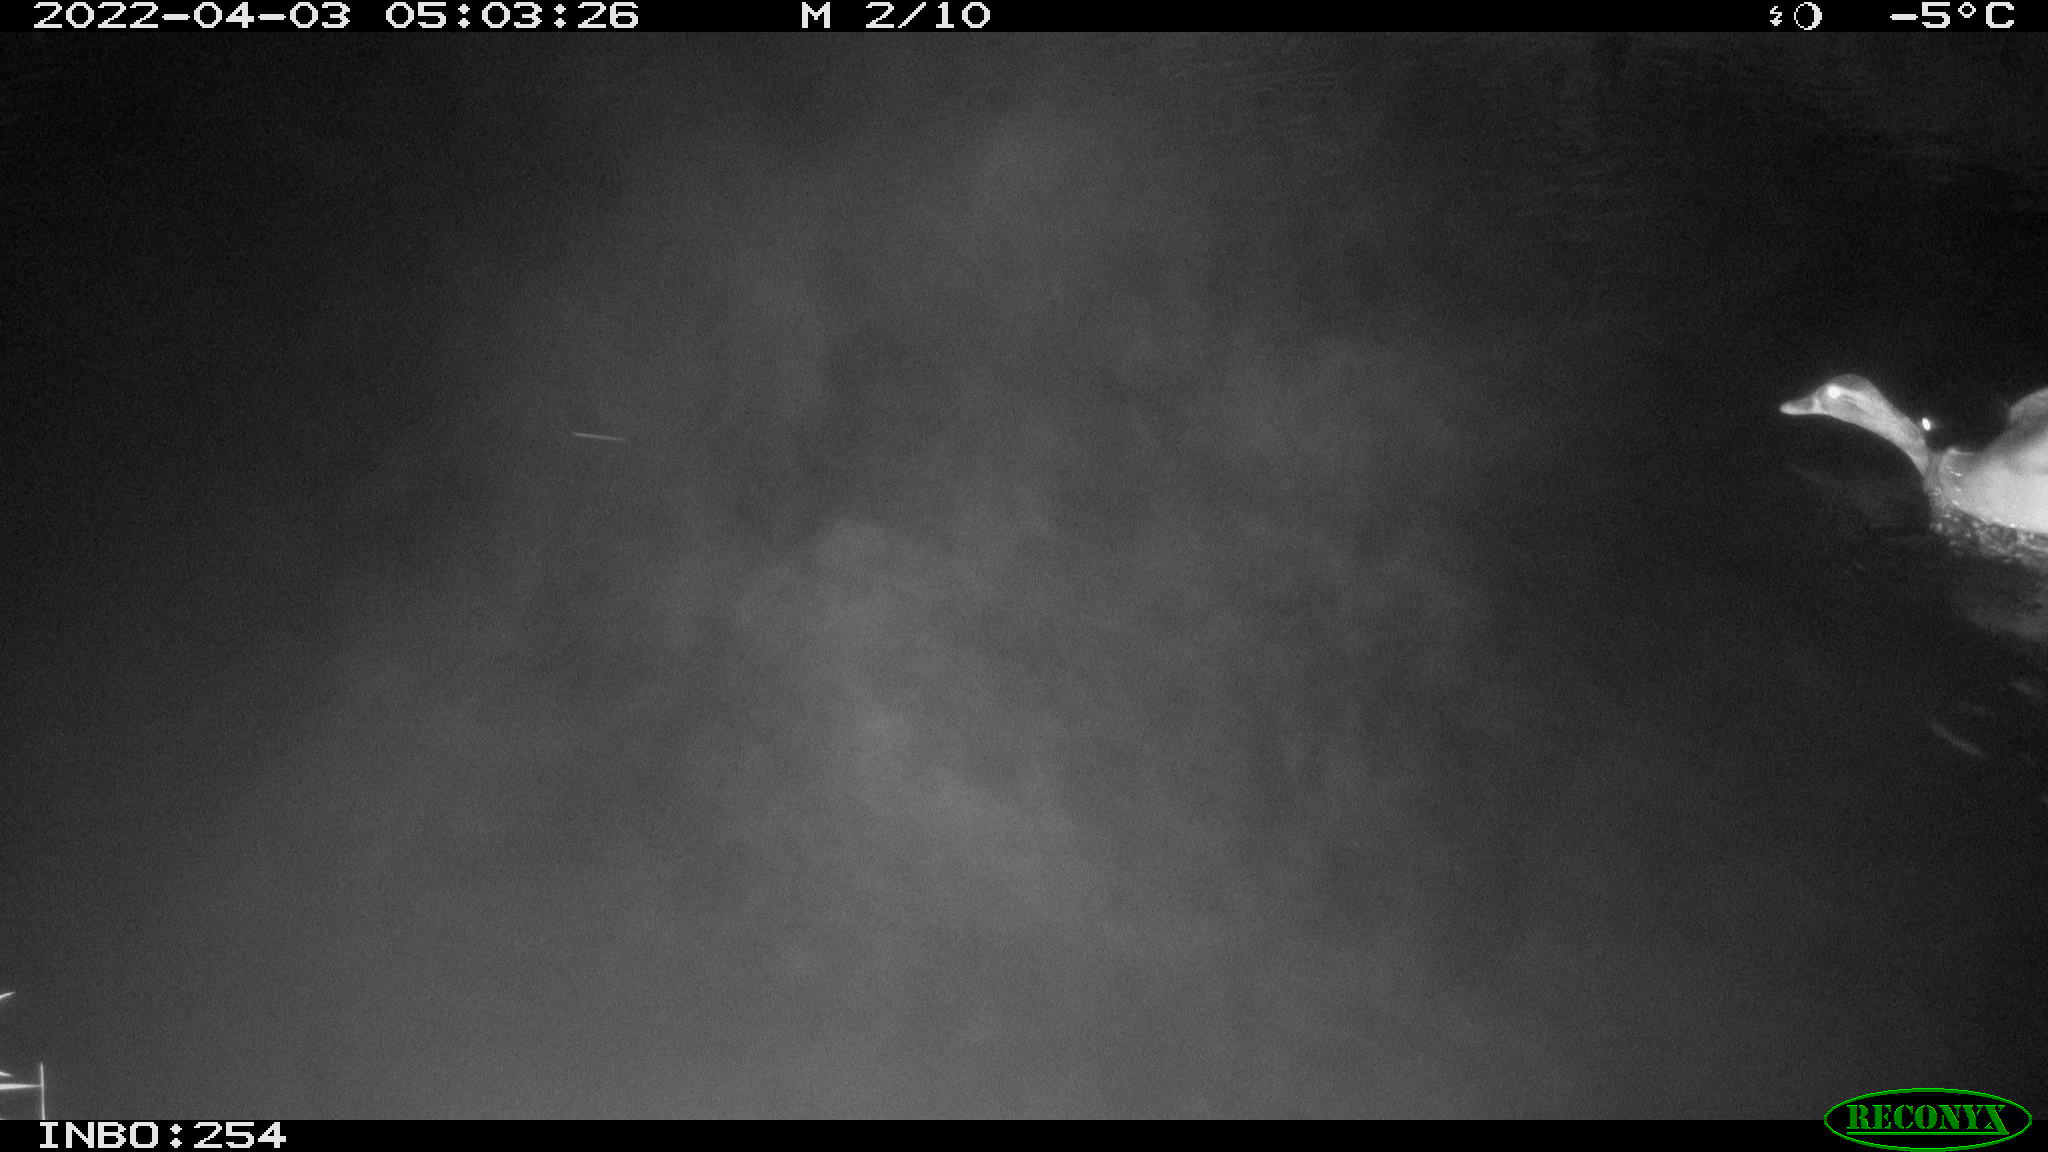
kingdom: Animalia
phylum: Chordata
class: Aves
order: Anseriformes
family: Anatidae
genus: Anas
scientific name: Anas platyrhynchos
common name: Mallard
